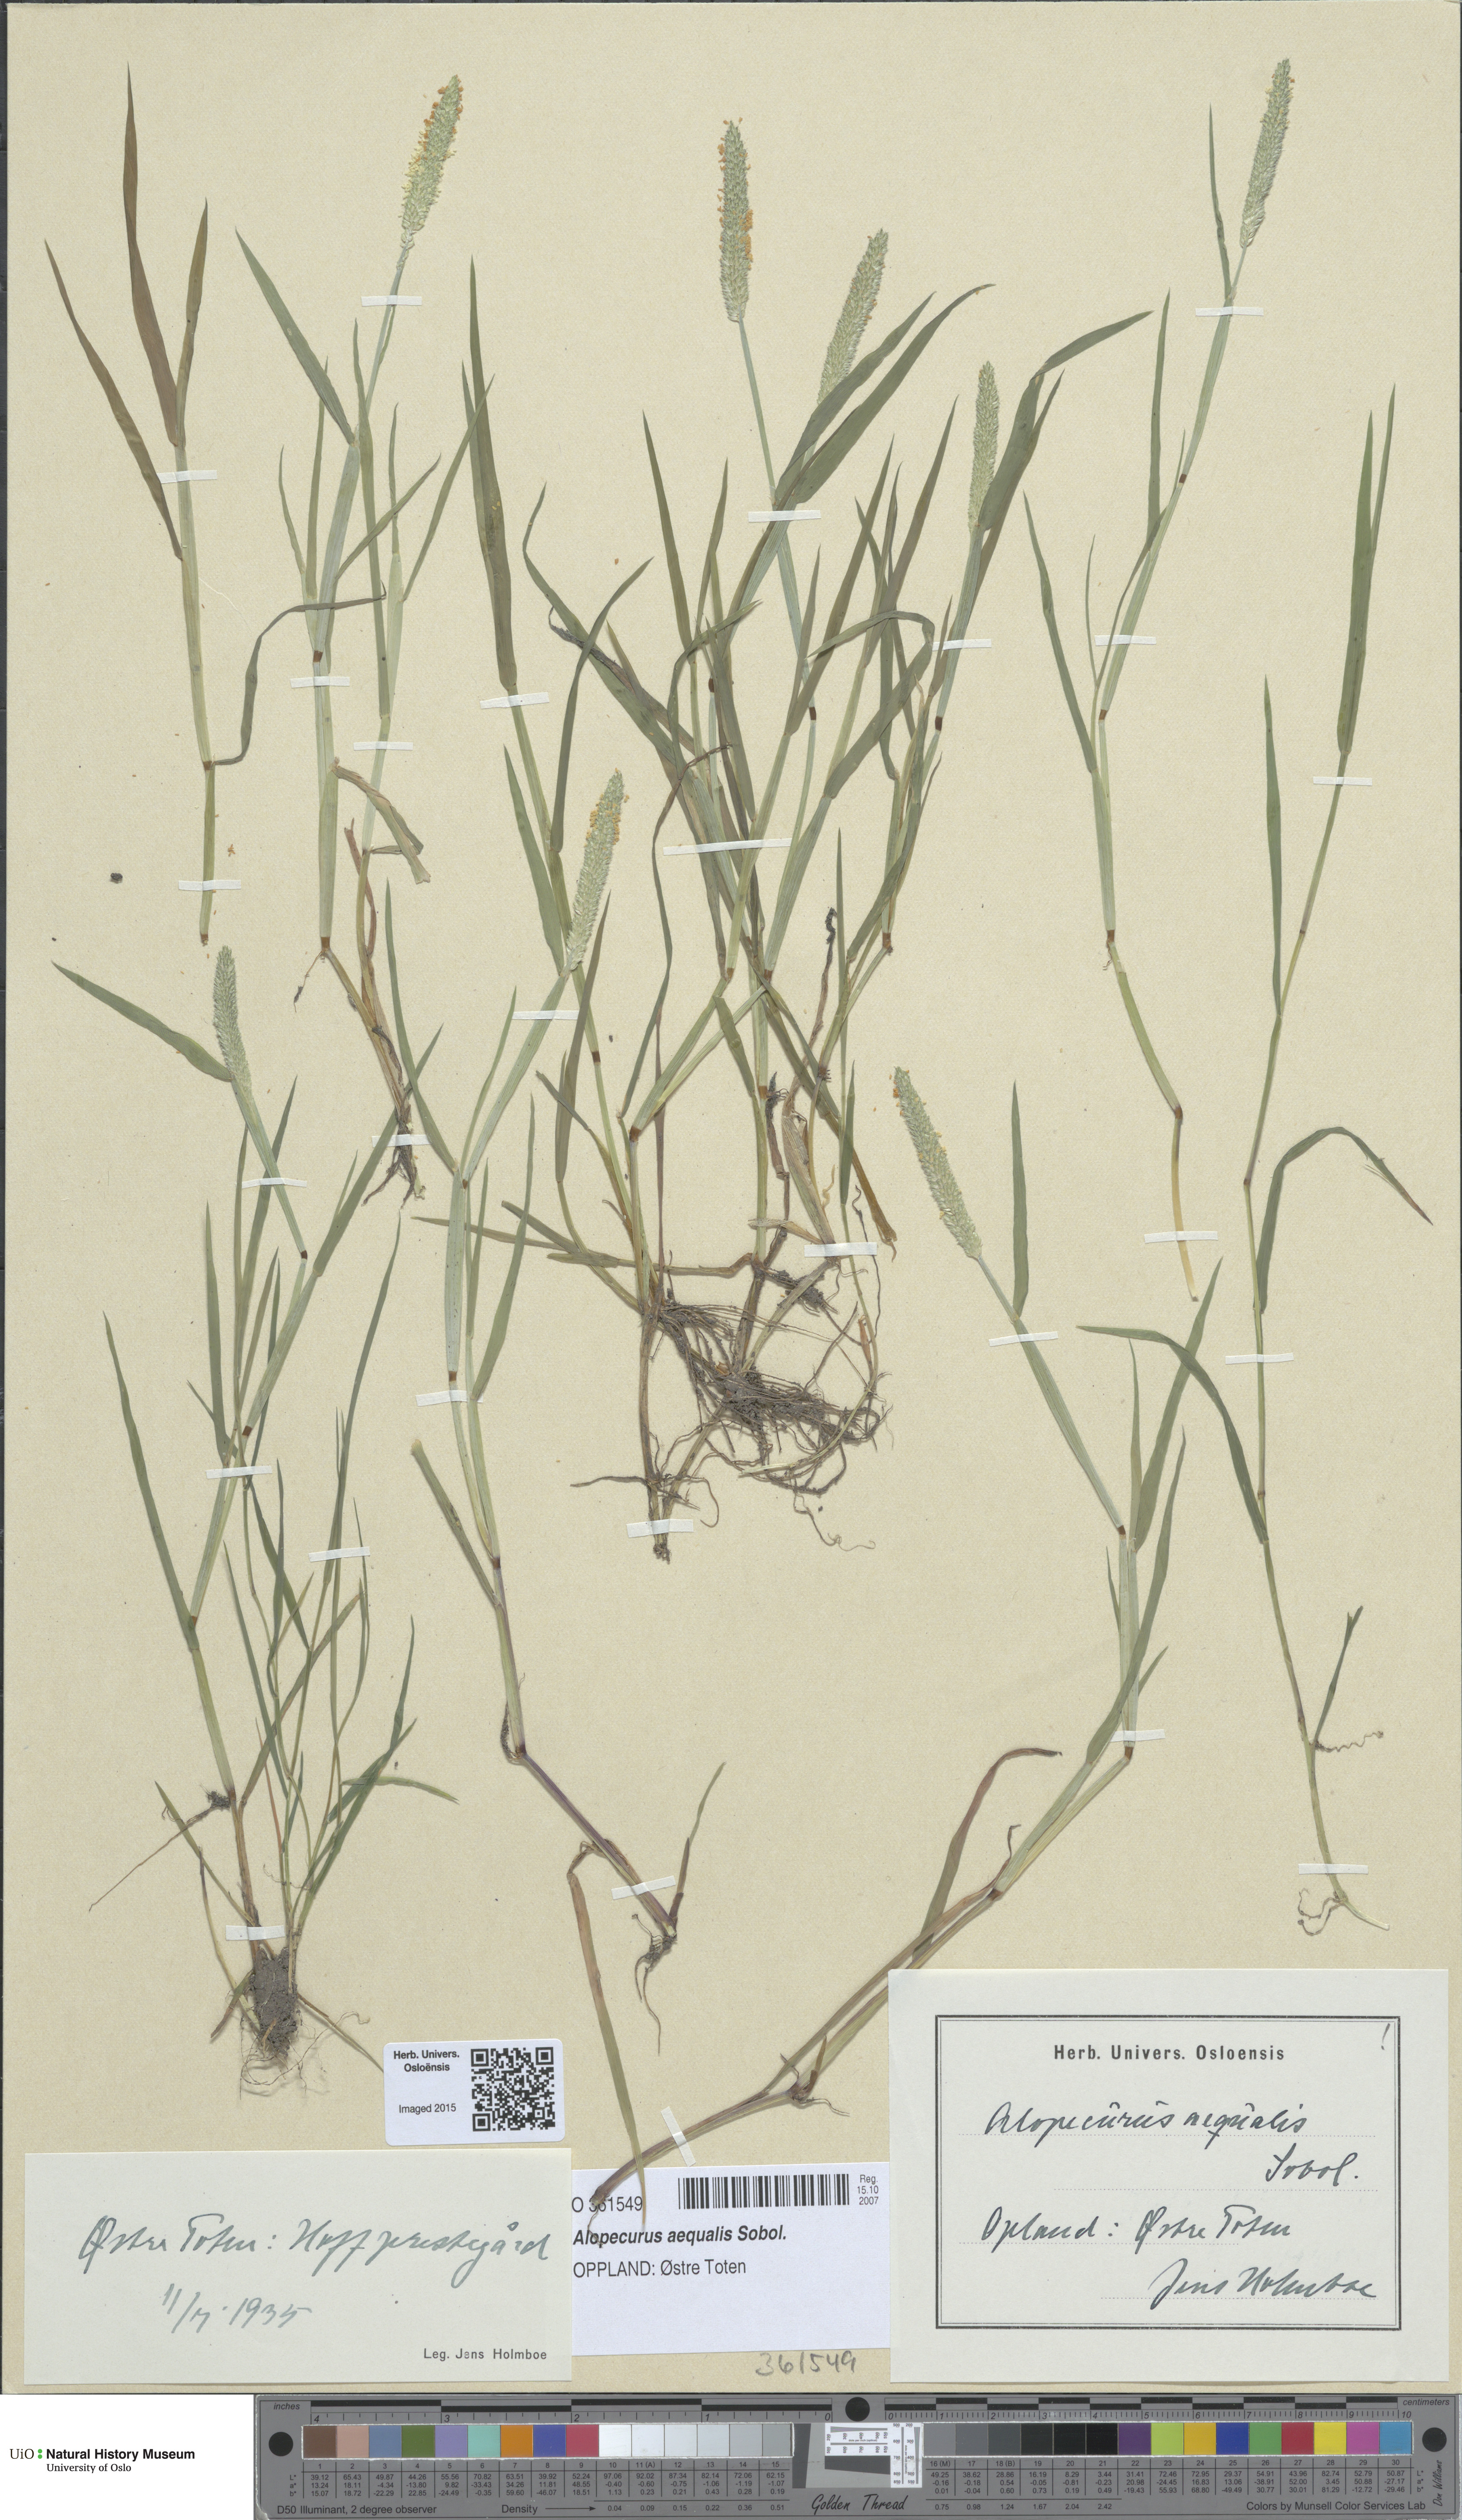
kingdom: Plantae
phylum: Tracheophyta
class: Liliopsida
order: Poales
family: Poaceae
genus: Alopecurus
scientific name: Alopecurus aequalis
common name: Orange foxtail
